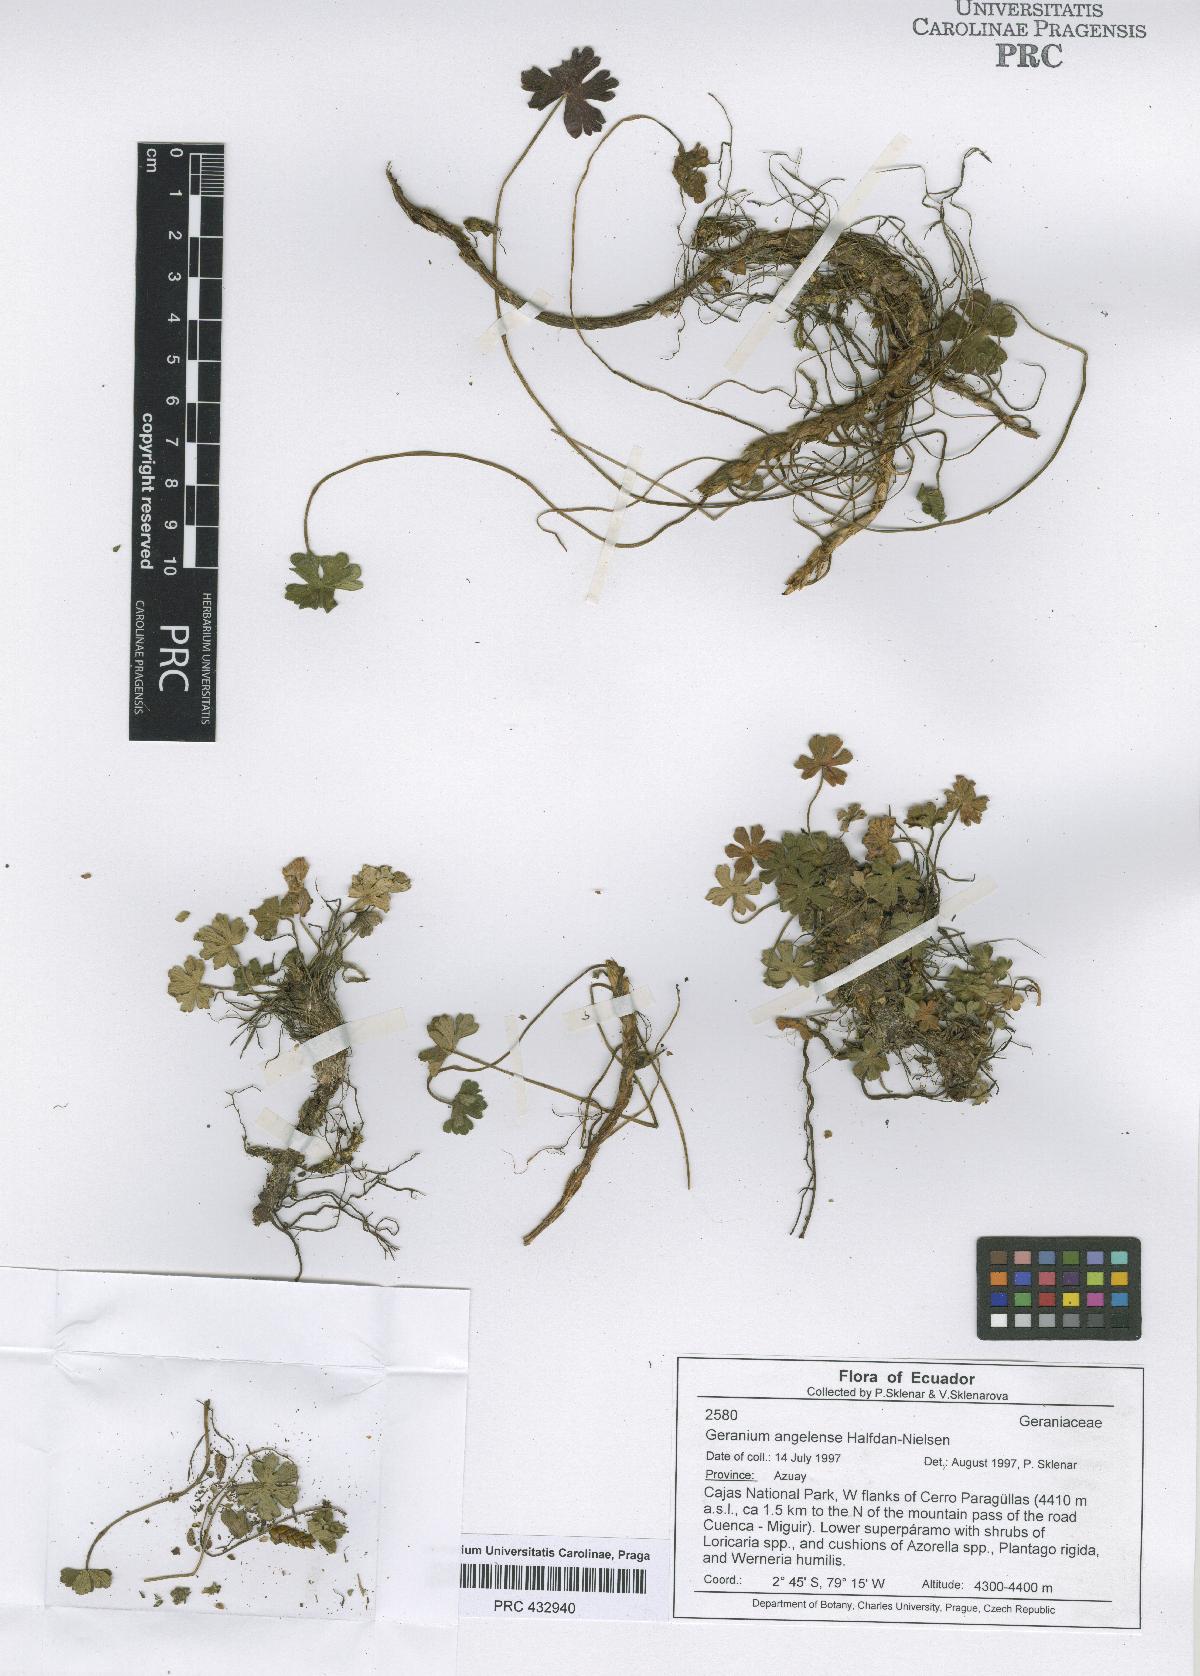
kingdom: Plantae
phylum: Tracheophyta
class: Magnoliopsida
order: Geraniales
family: Geraniaceae
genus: Geranium
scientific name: Geranium stramineum
